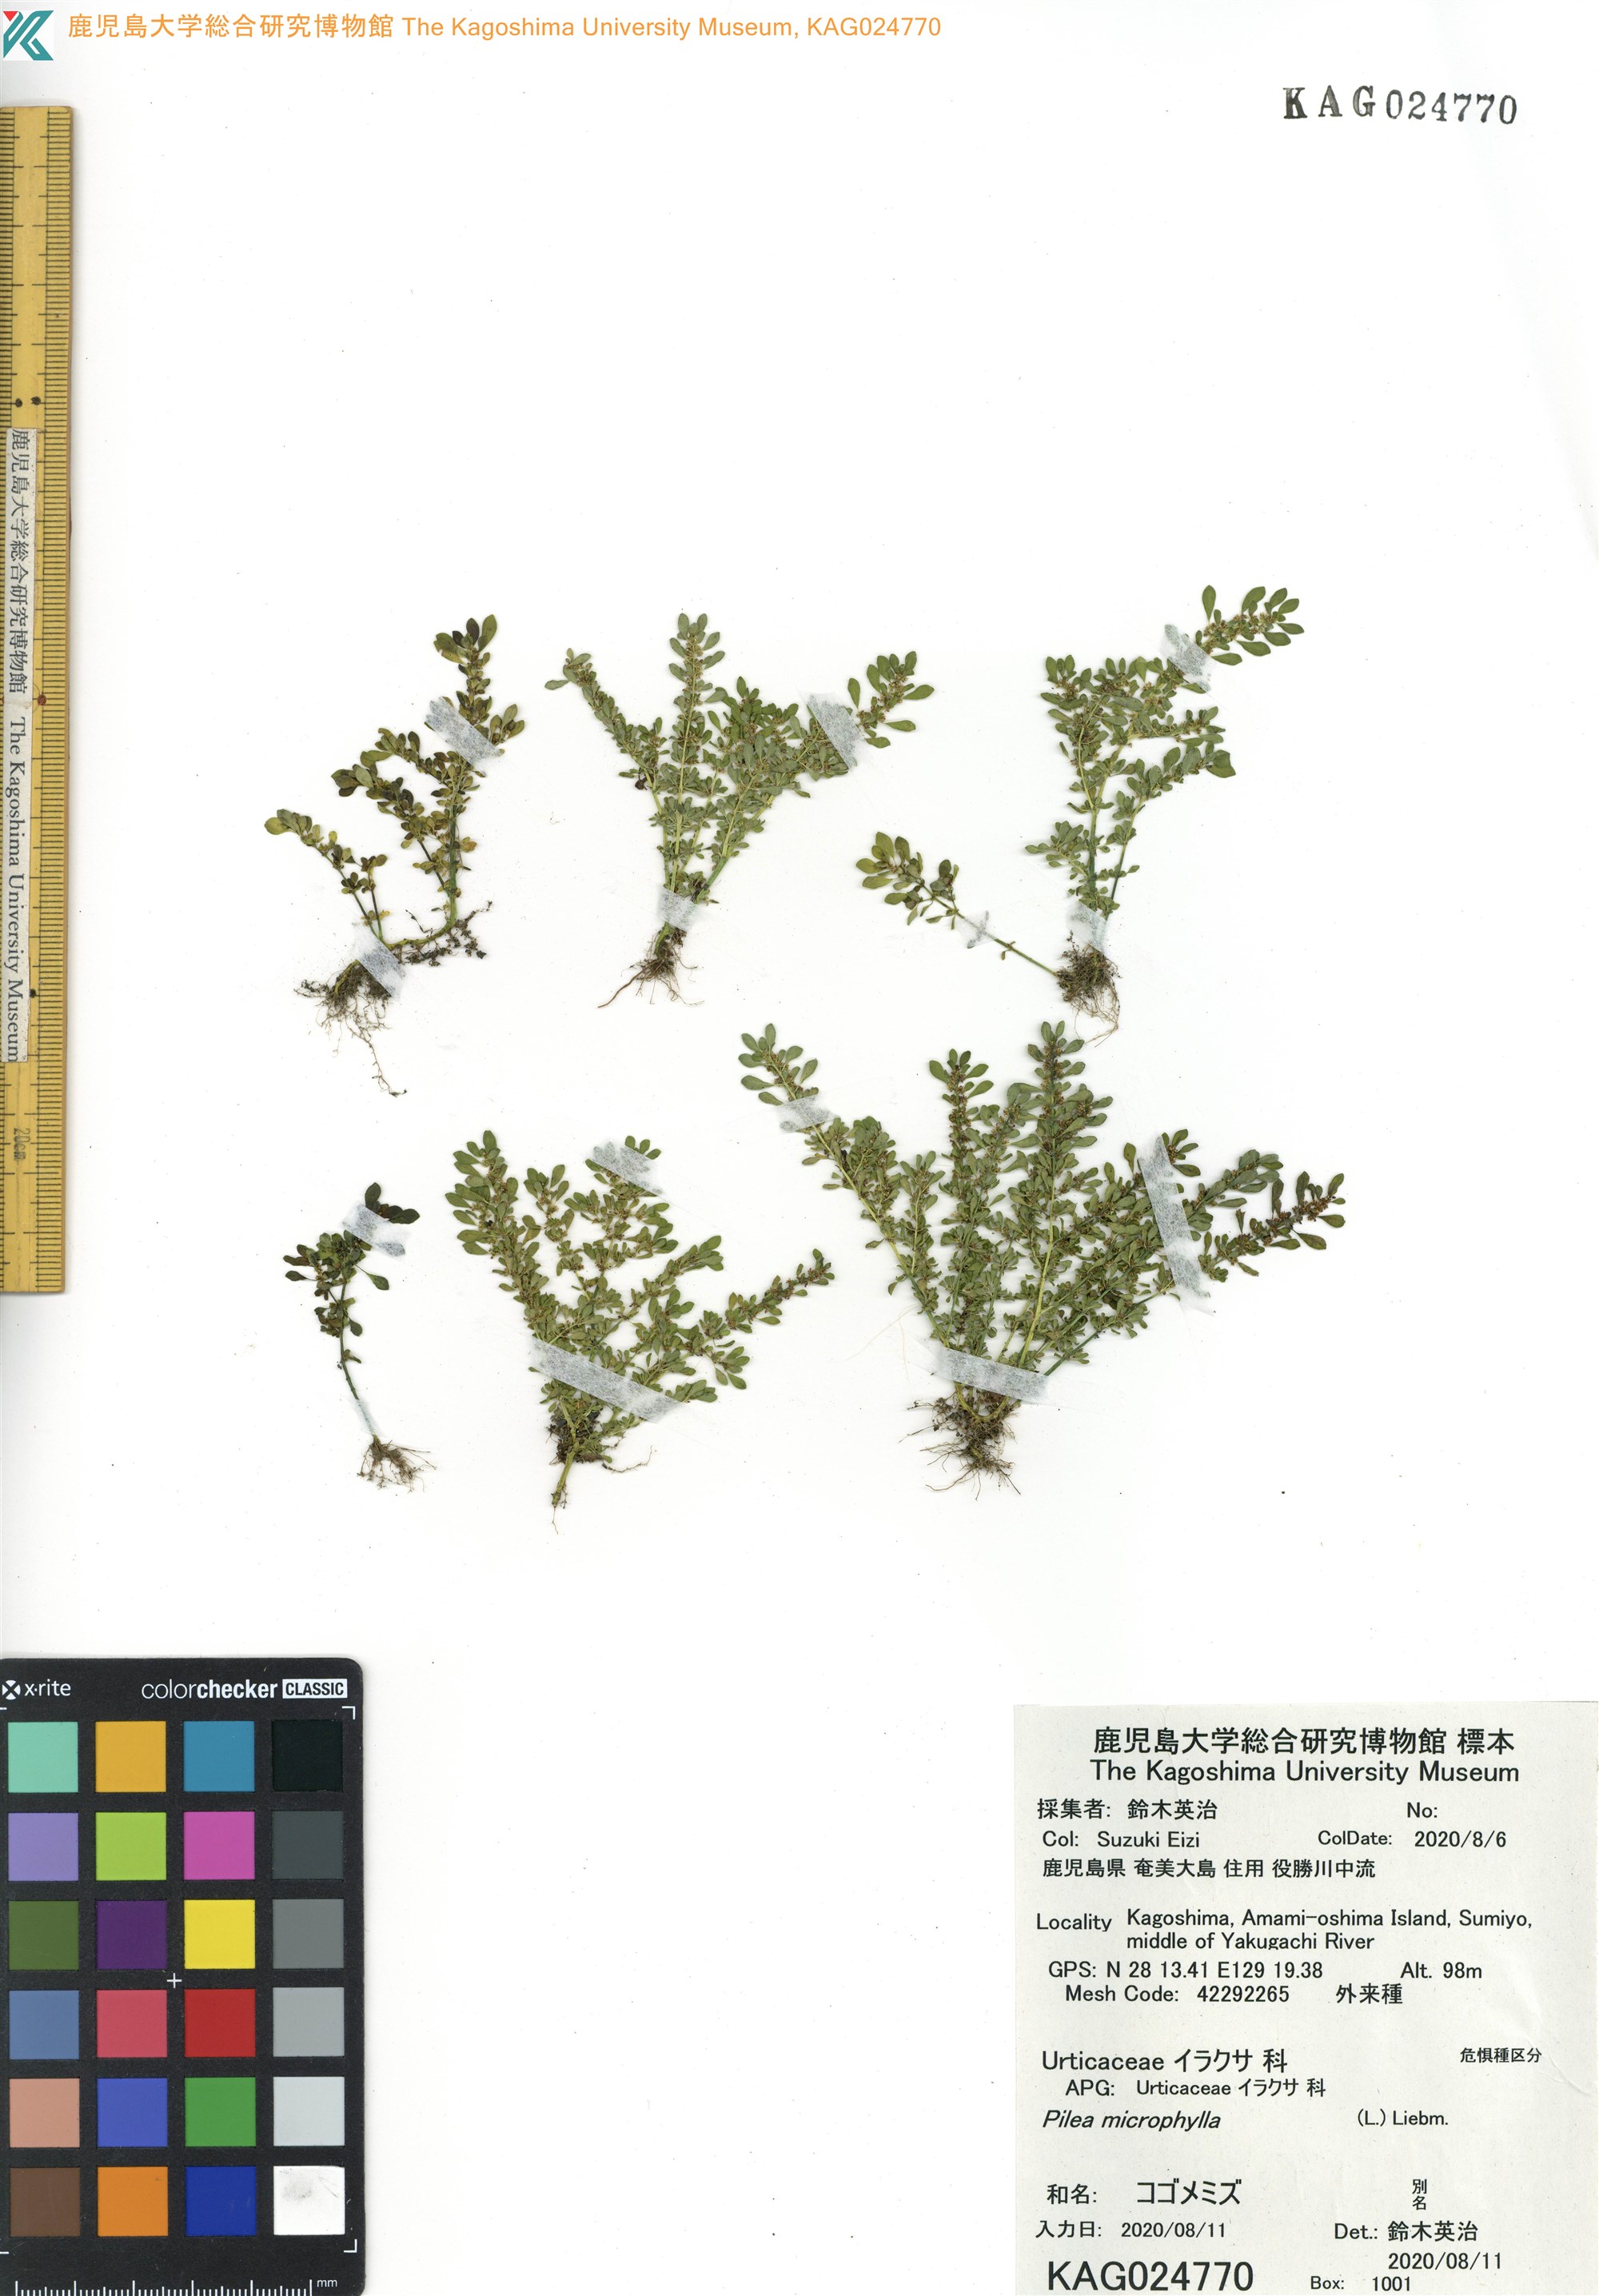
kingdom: Plantae
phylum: Tracheophyta
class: Magnoliopsida
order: Rosales
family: Urticaceae
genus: Pilea
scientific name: Pilea microphylla
